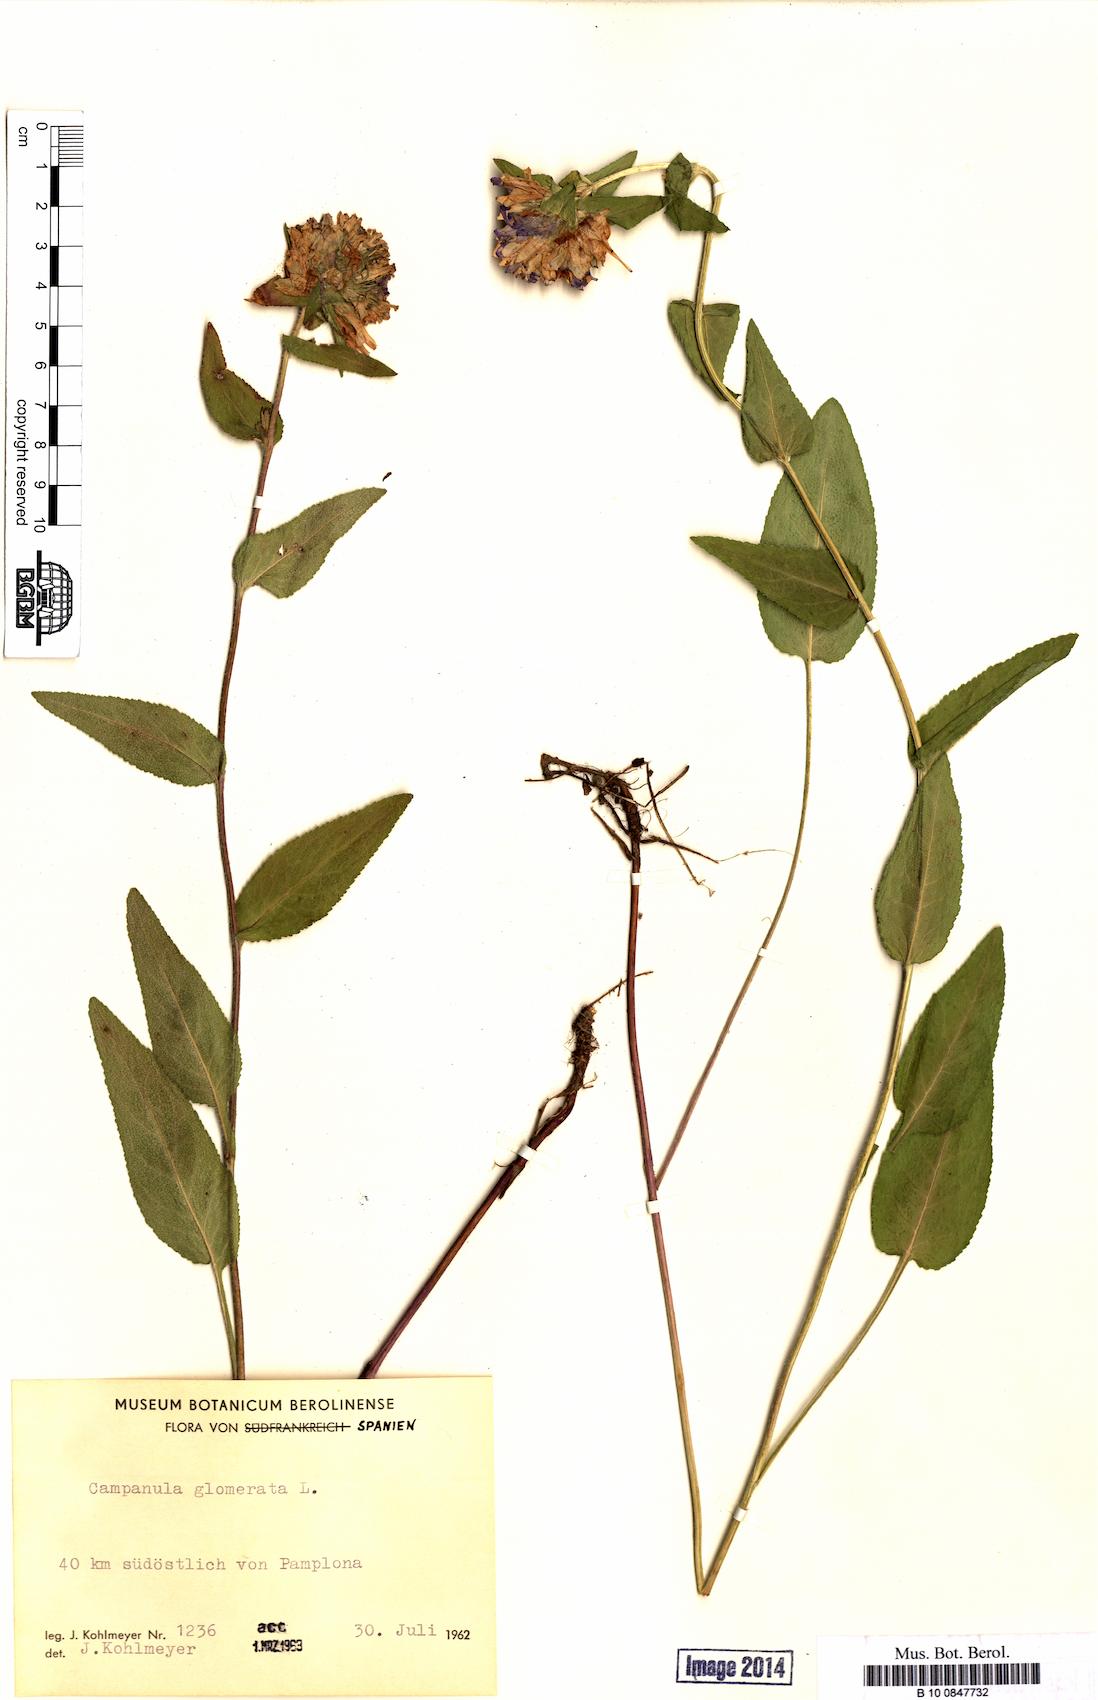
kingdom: Plantae
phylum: Tracheophyta
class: Magnoliopsida
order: Asterales
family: Campanulaceae
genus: Campanula
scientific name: Campanula glomerata
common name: Clustered bellflower
